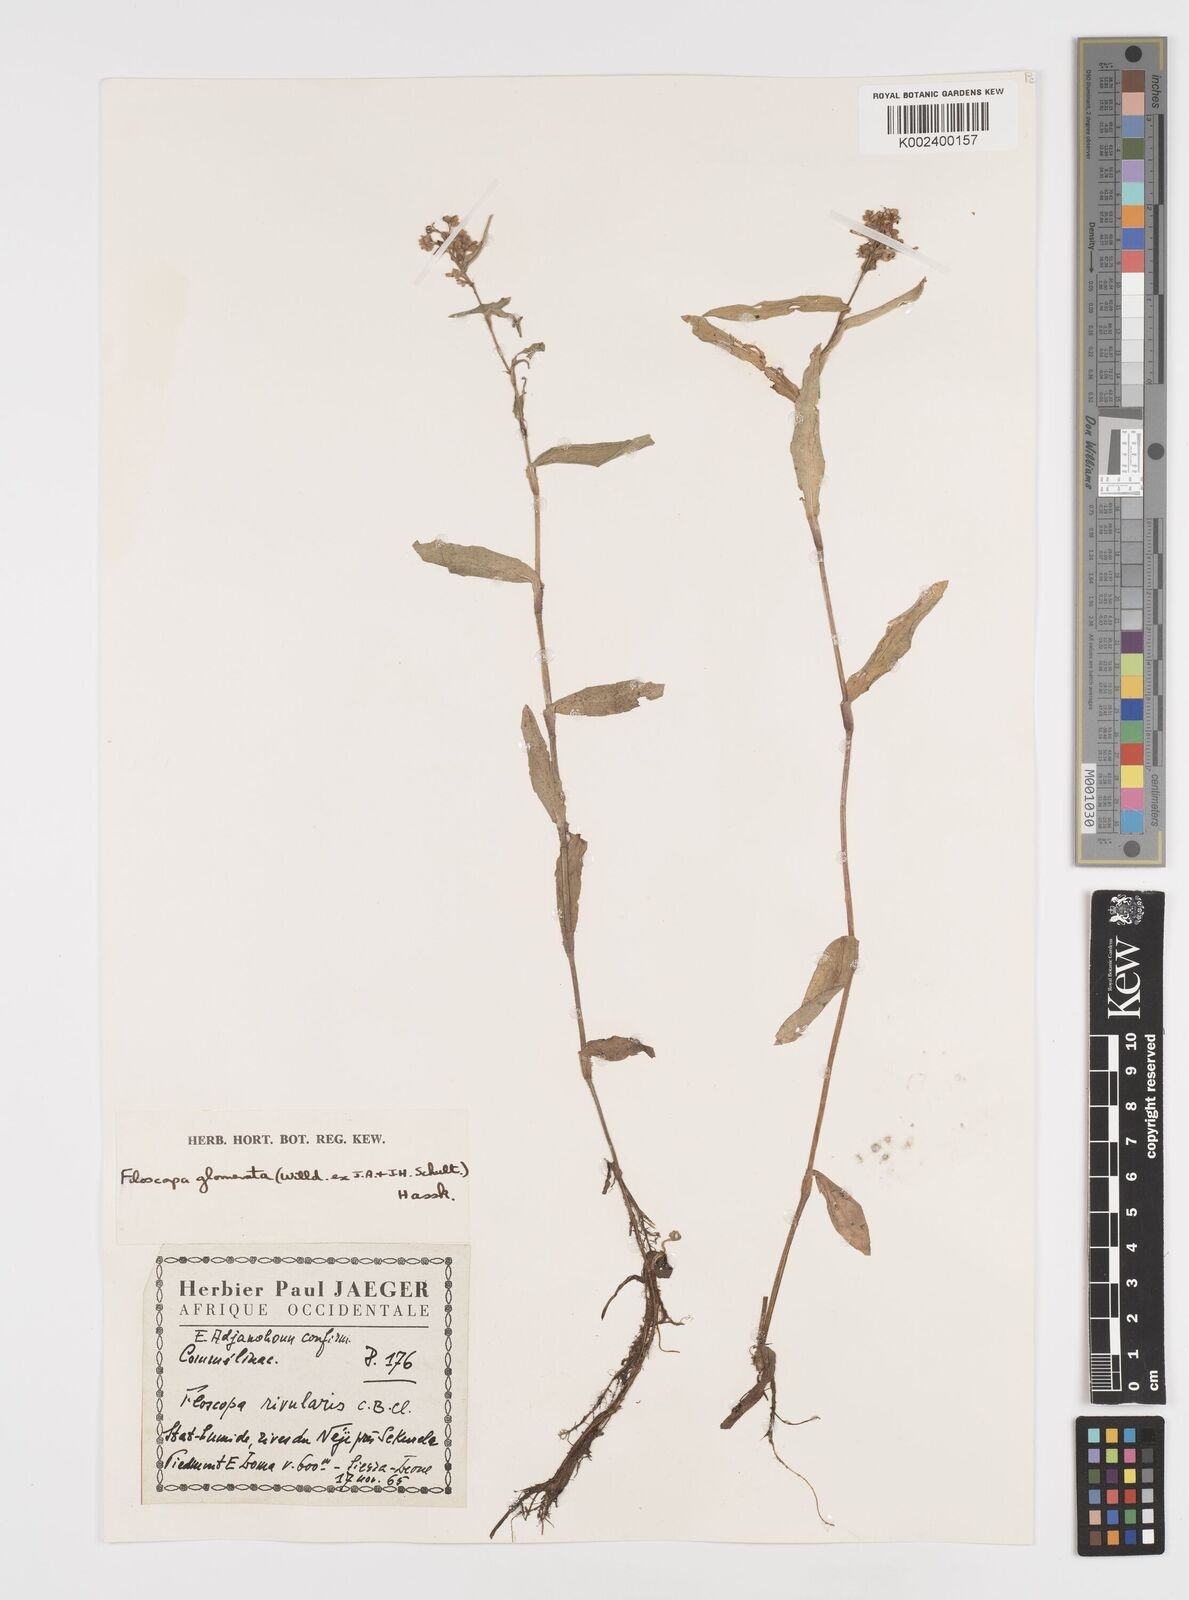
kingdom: Plantae
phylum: Tracheophyta
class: Liliopsida
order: Commelinales
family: Commelinaceae
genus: Floscopa
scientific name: Floscopa glomerata
